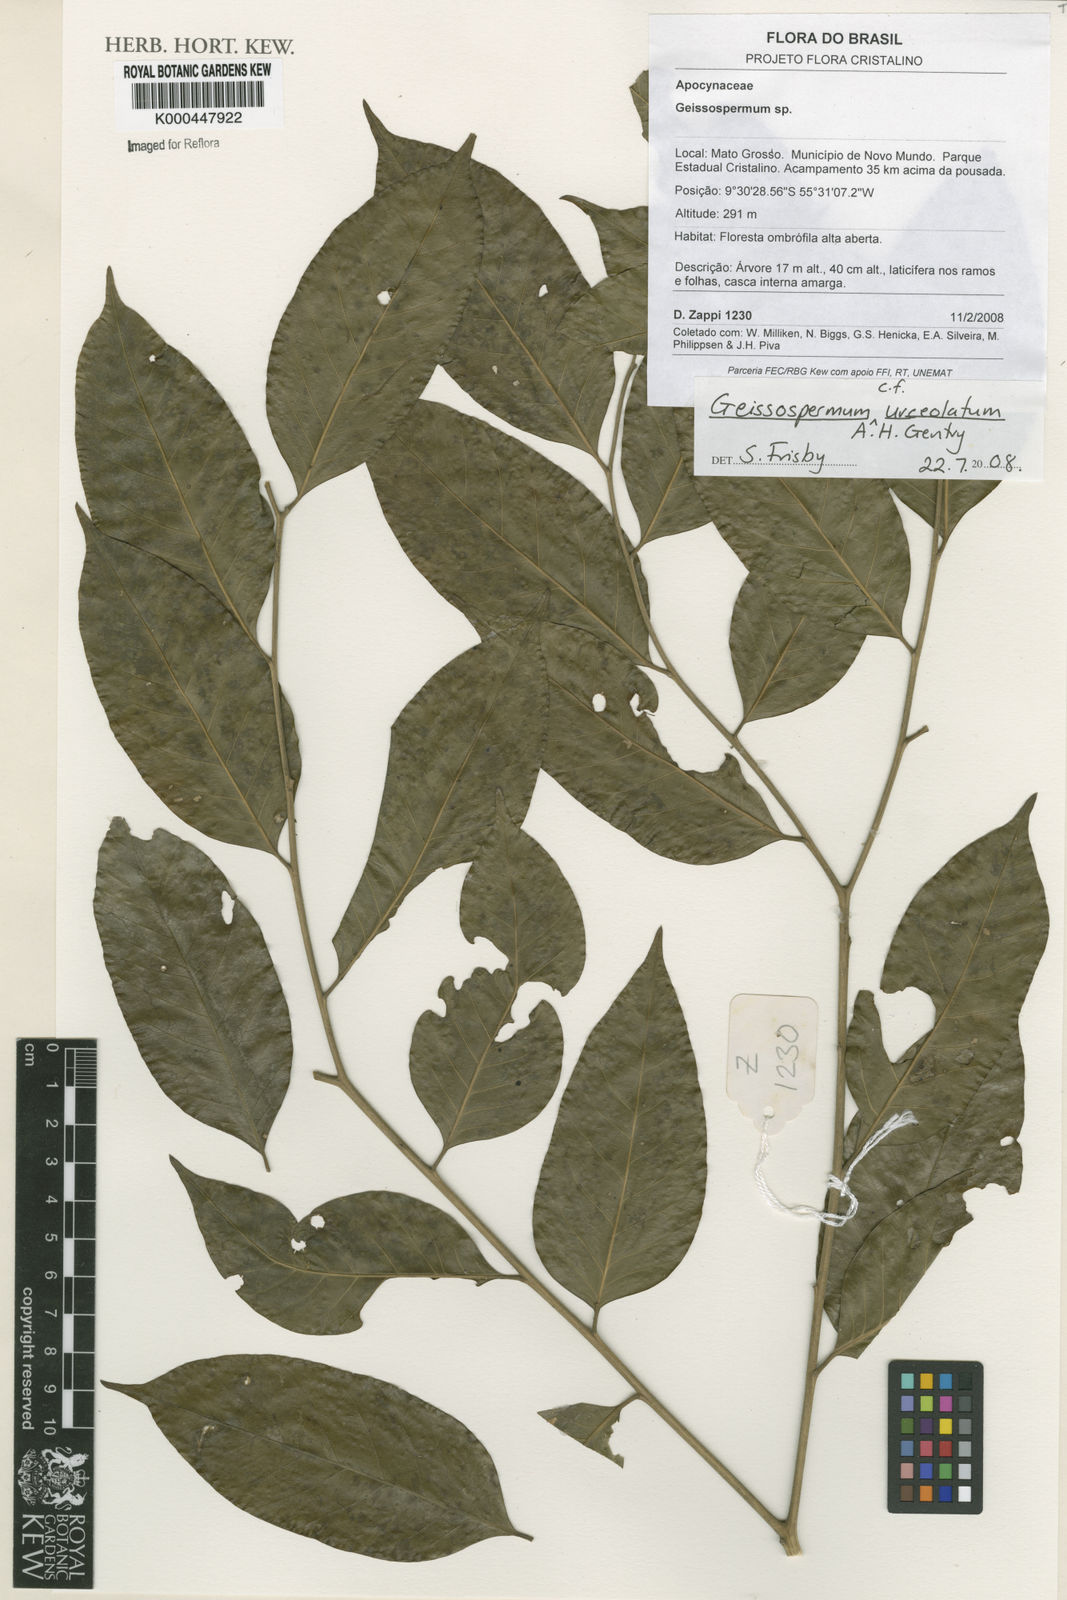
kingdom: Plantae
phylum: Tracheophyta
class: Magnoliopsida
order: Gentianales
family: Apocynaceae
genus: Geissospermum
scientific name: Geissospermum urceolatum
